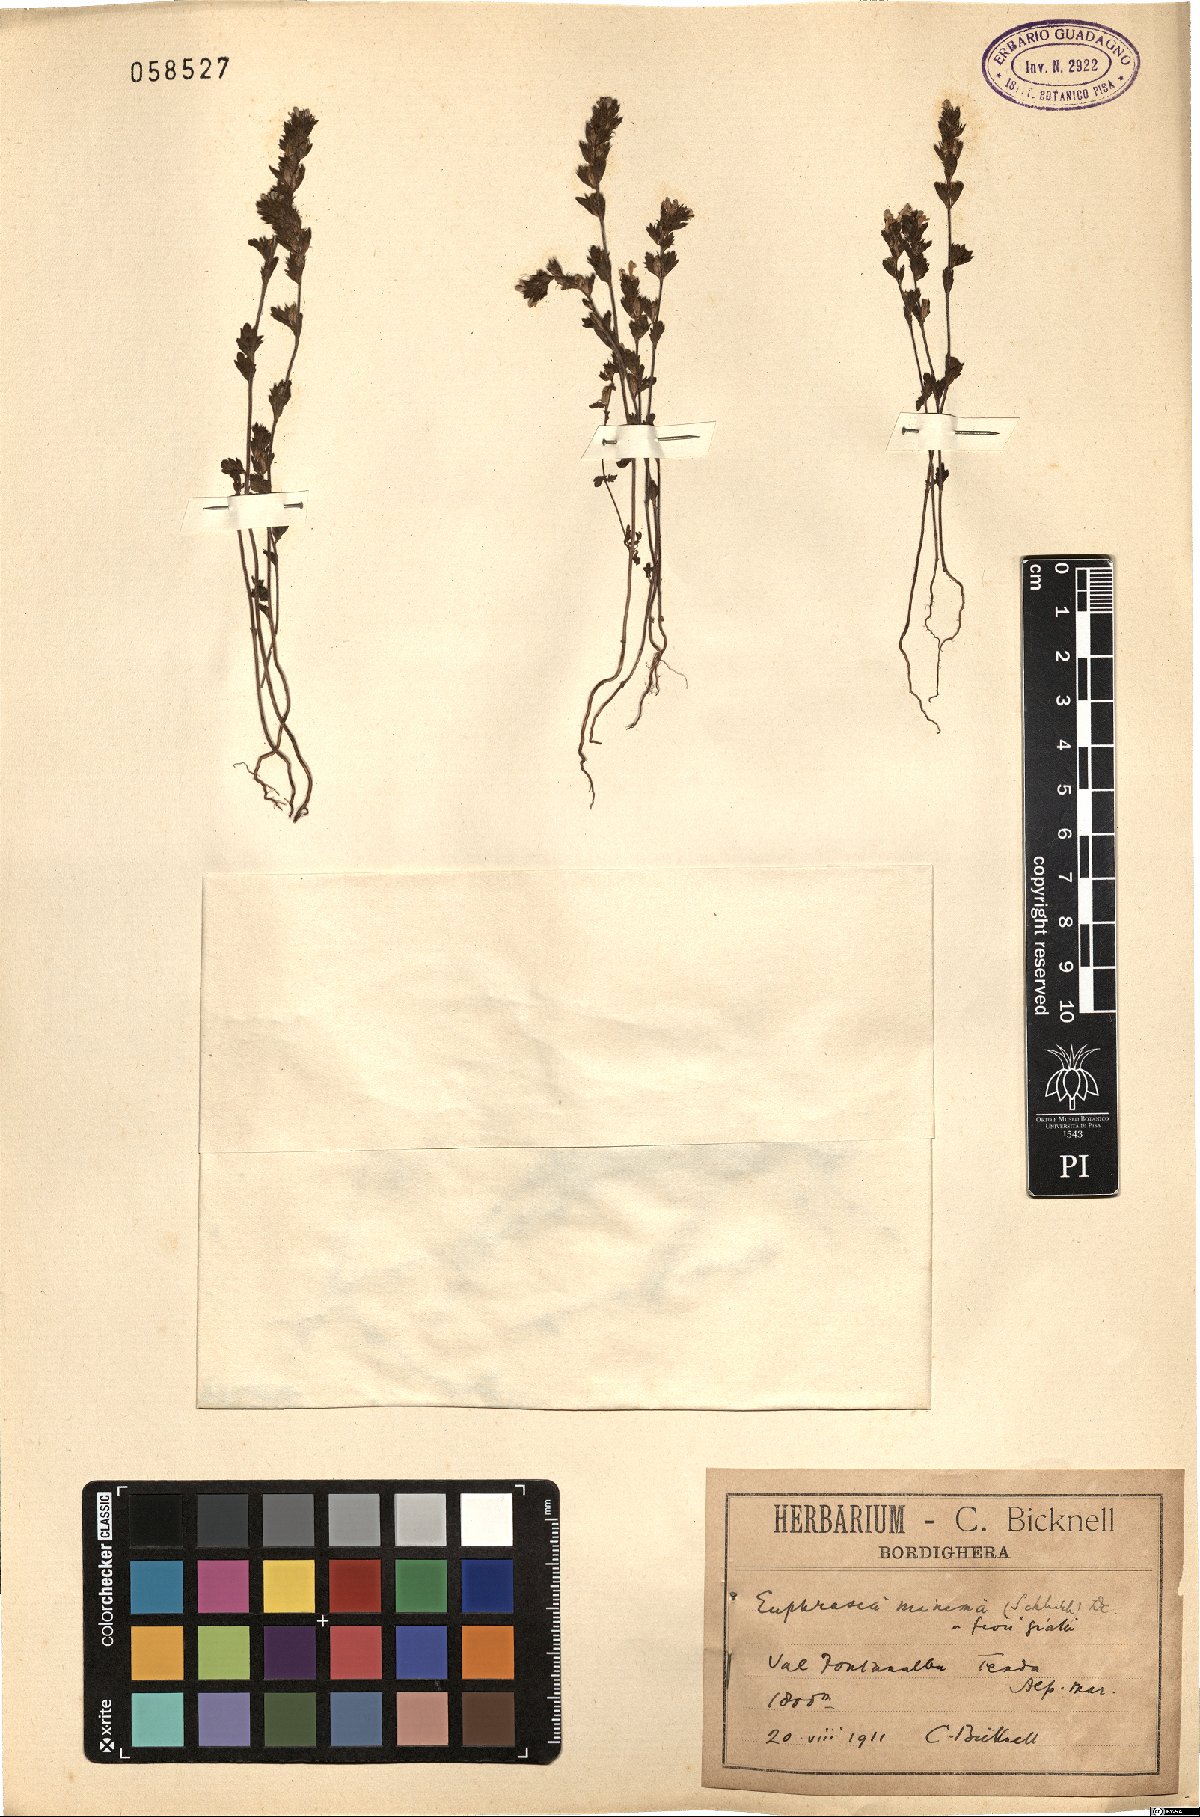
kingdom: Plantae
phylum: Tracheophyta
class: Magnoliopsida
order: Lamiales
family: Orobanchaceae
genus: Euphrasia
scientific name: Euphrasia minima
